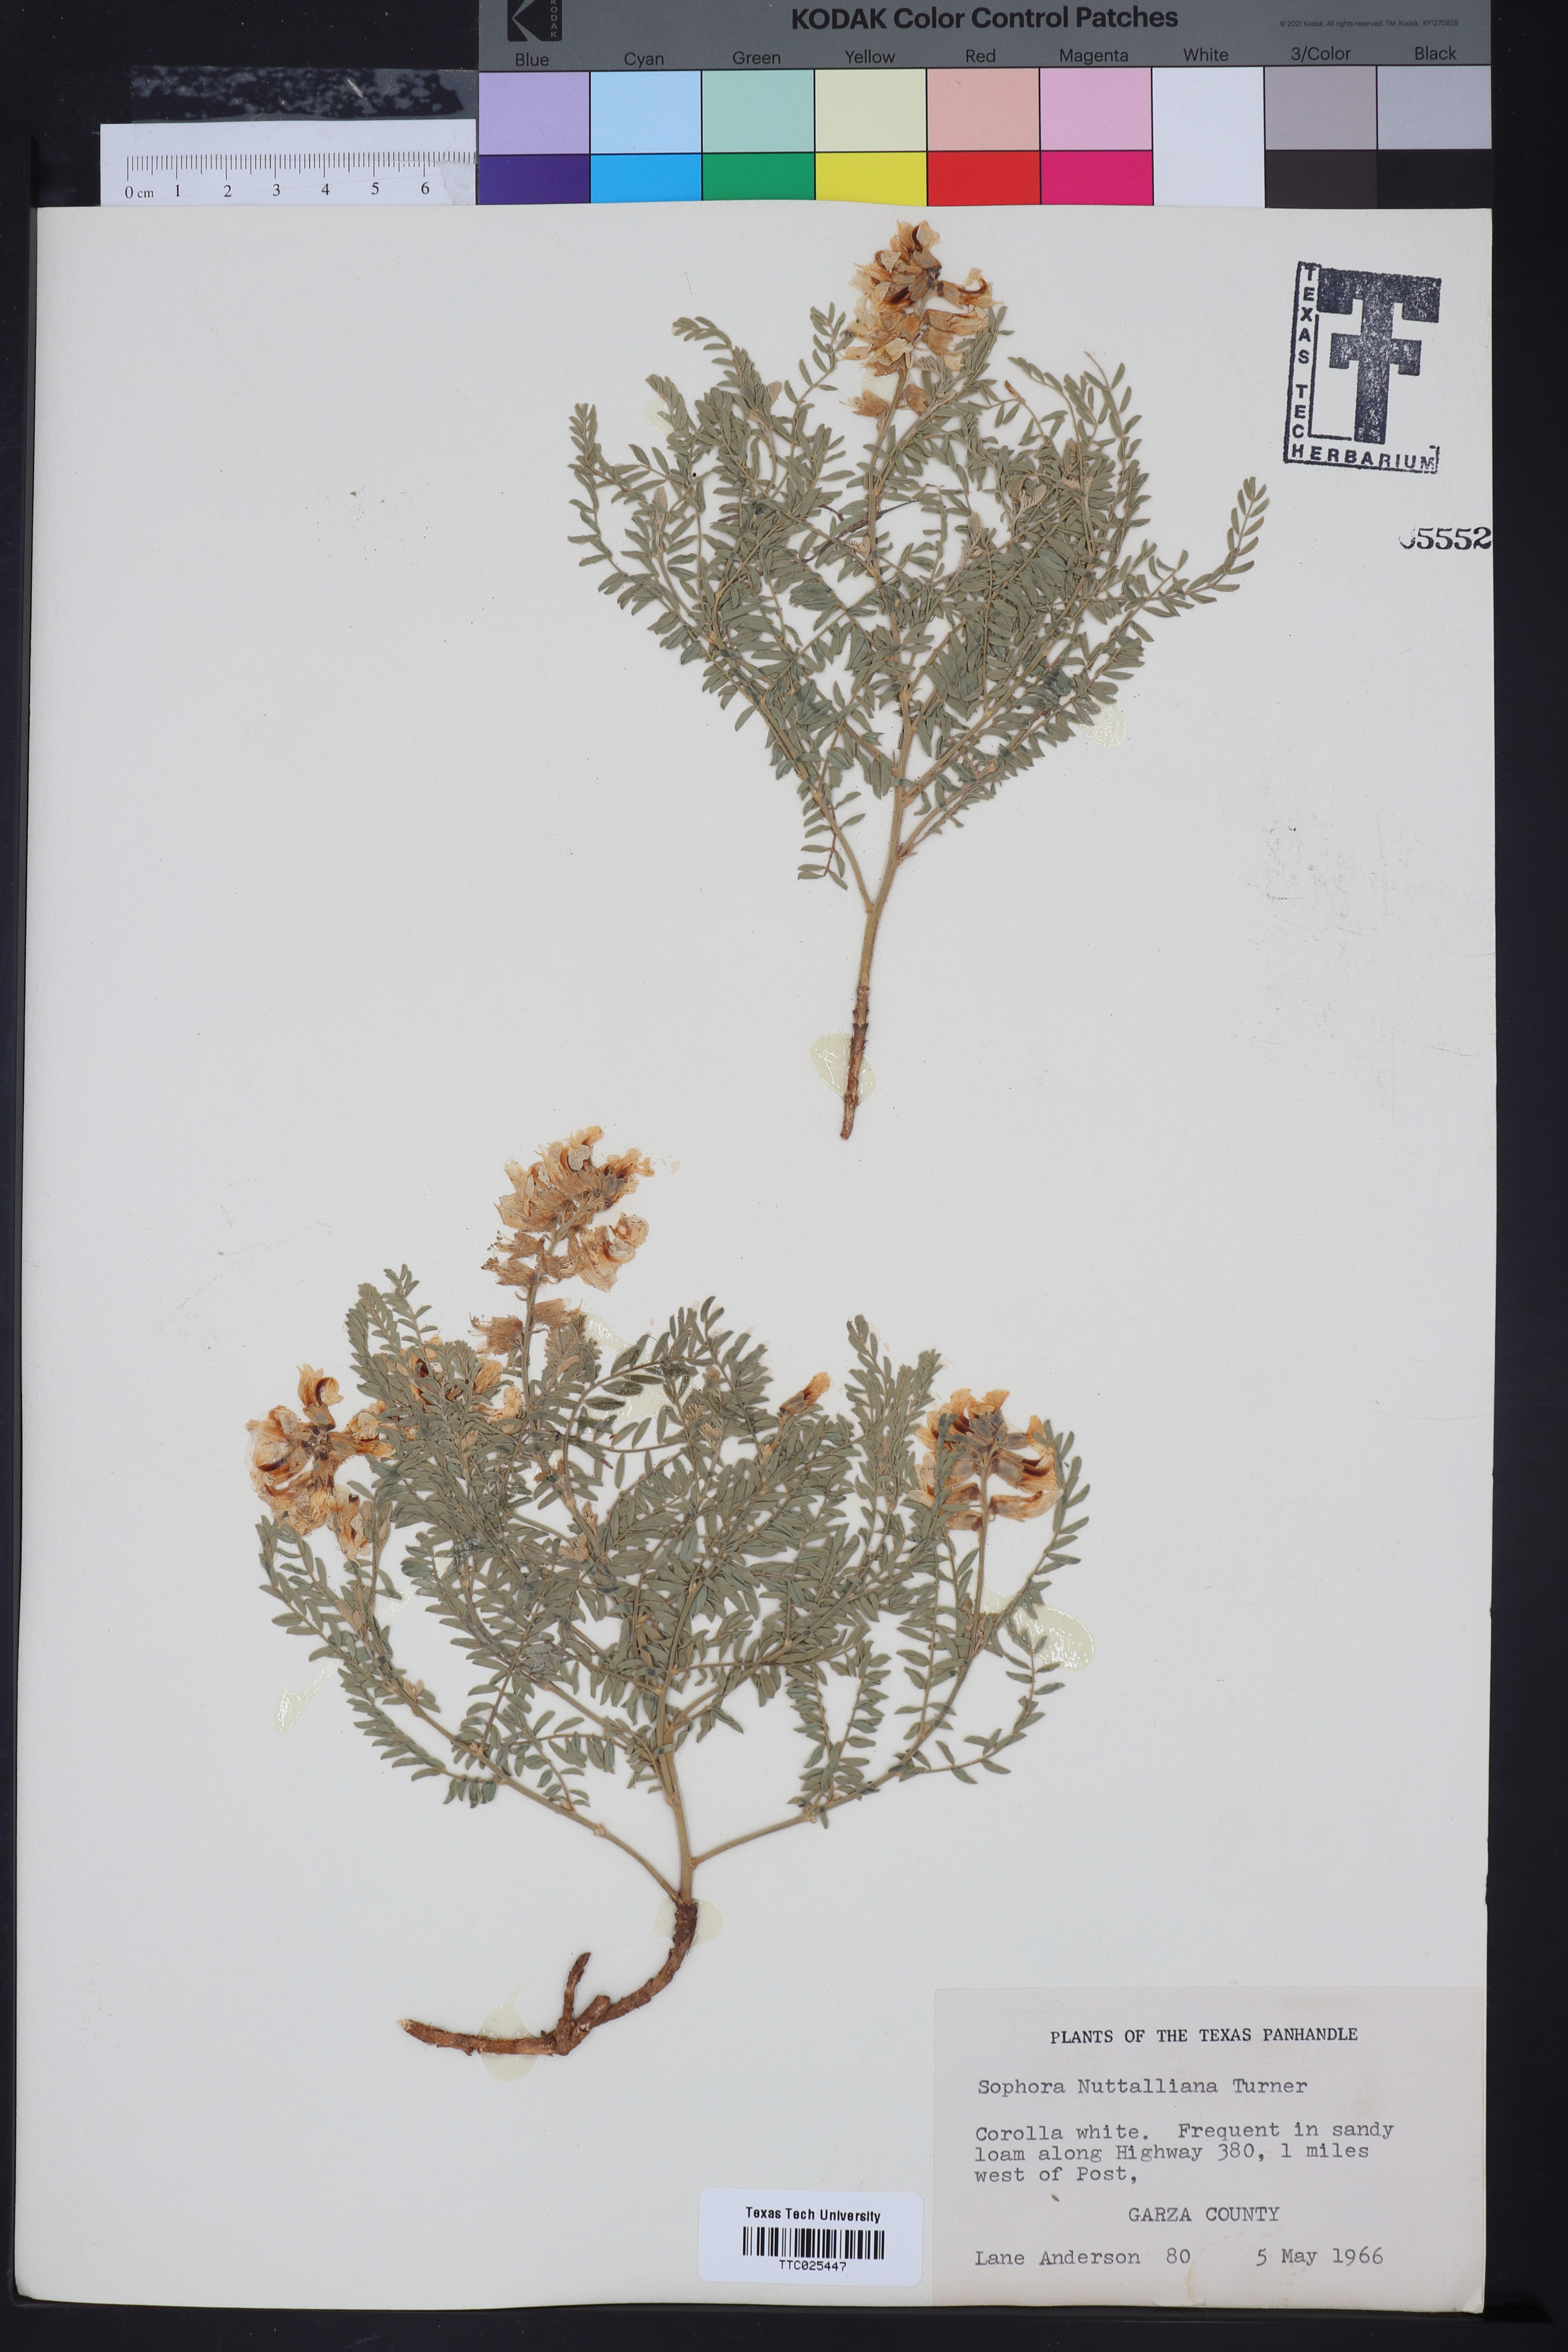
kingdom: Plantae
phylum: Tracheophyta
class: Magnoliopsida
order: Fabales
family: Fabaceae
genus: Sophora
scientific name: Sophora nuttalliana
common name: Silky sophora
